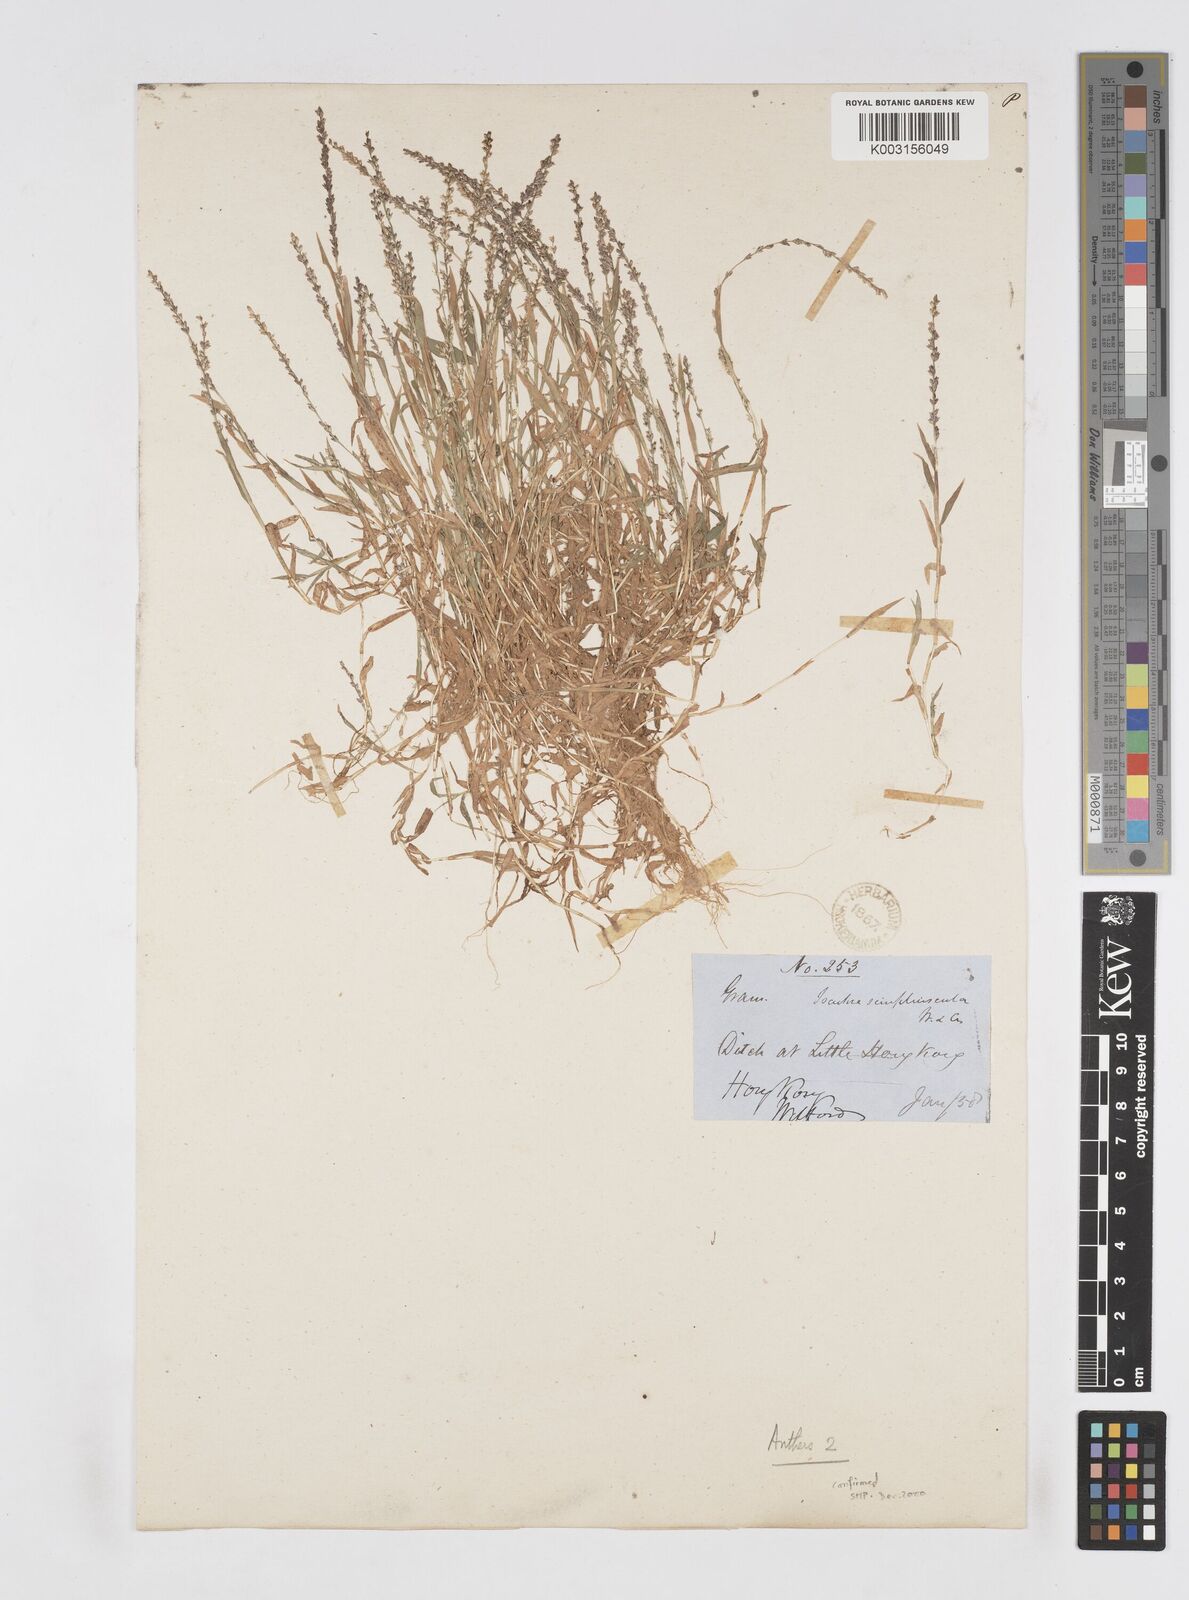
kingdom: Plantae
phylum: Tracheophyta
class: Liliopsida
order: Poales
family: Poaceae
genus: Coelachne
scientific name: Coelachne infirma
